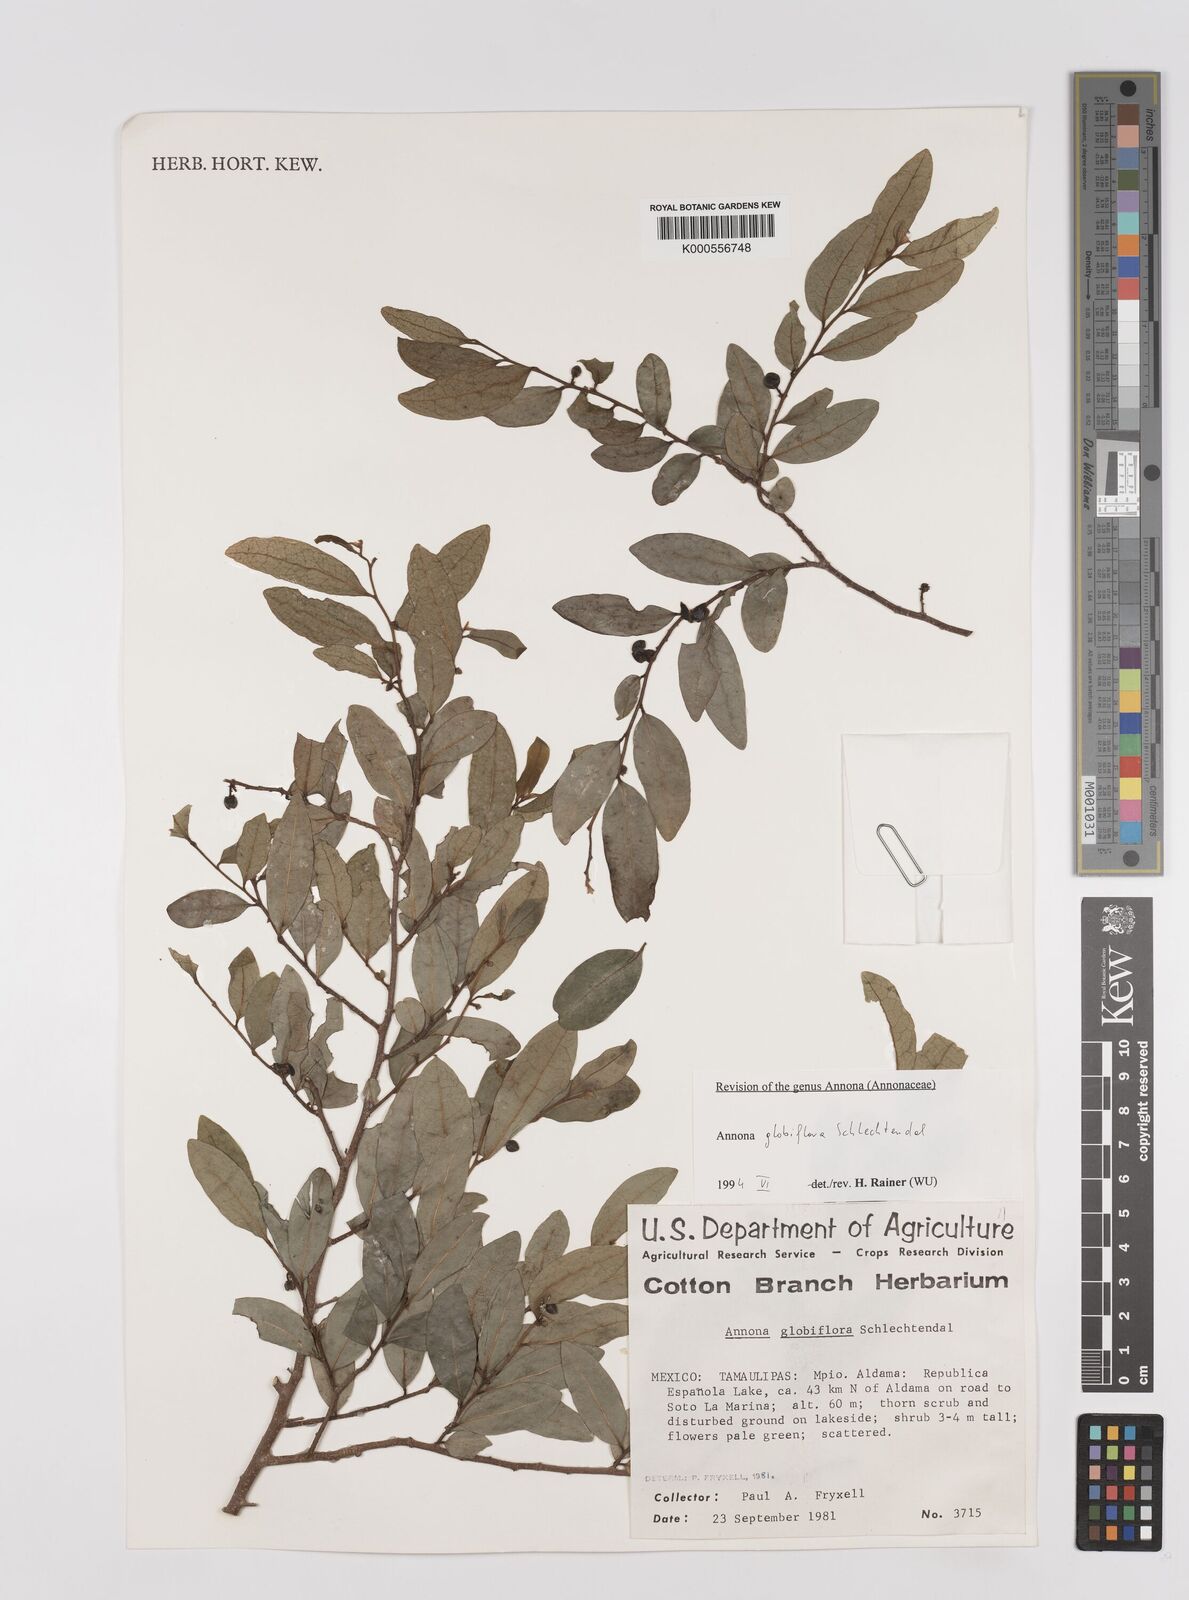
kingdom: Plantae
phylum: Tracheophyta
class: Magnoliopsida
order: Magnoliales
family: Annonaceae
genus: Annona
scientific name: Annona globiflora
